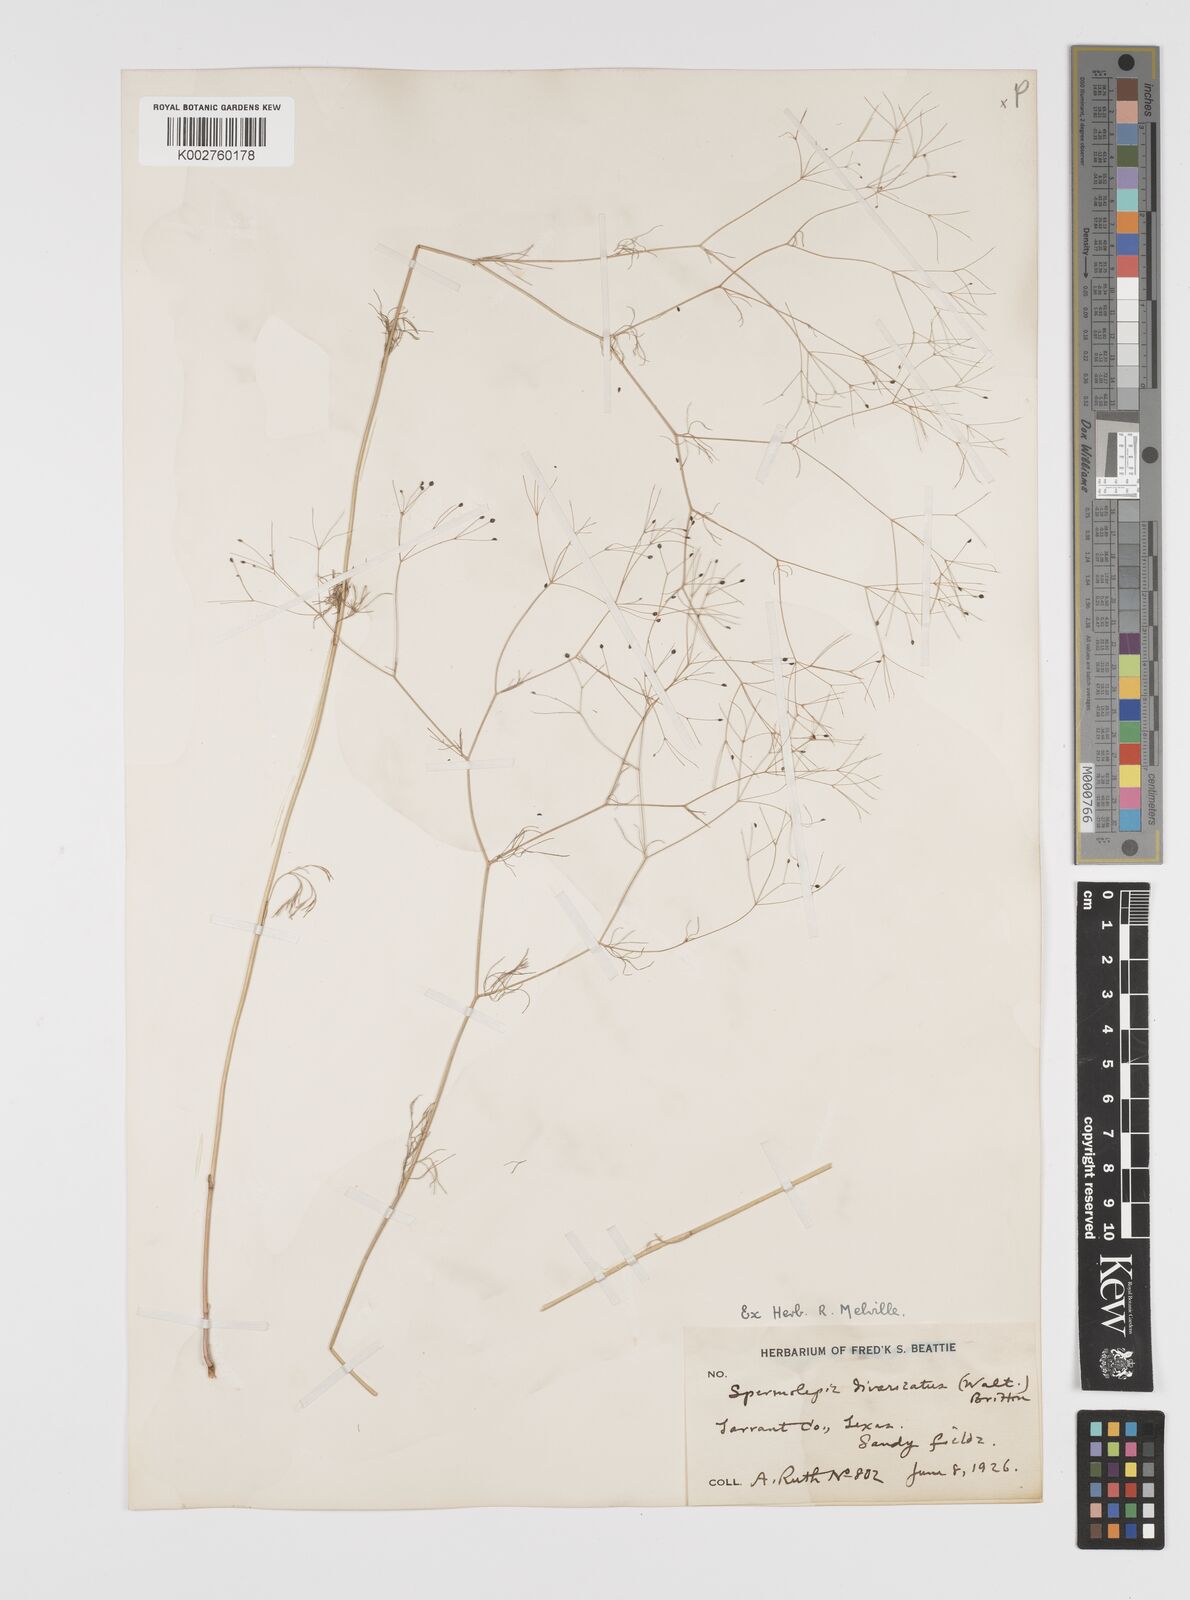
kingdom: Plantae
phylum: Tracheophyta
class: Magnoliopsida
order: Apiales
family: Apiaceae
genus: Spermolepis
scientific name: Spermolepis divaricata
